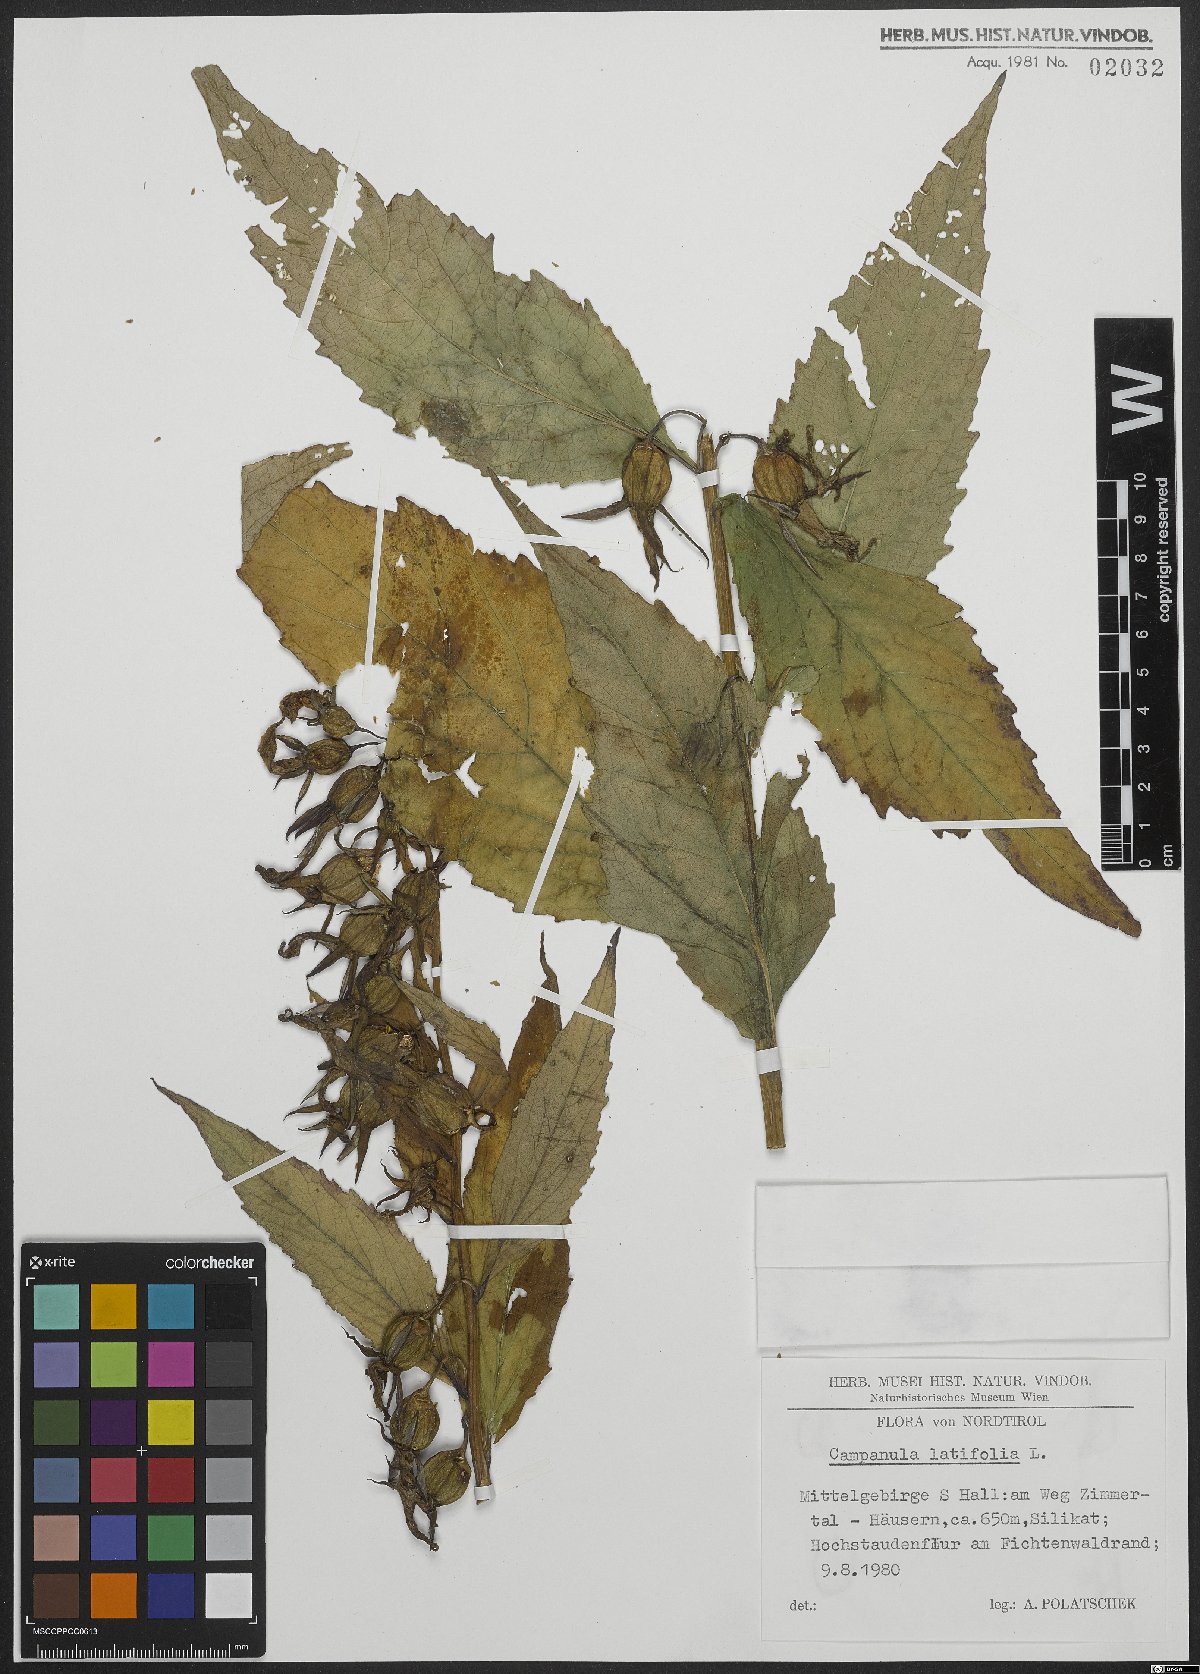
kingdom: Plantae
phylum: Tracheophyta
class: Magnoliopsida
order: Asterales
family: Campanulaceae
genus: Campanula
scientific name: Campanula latifolia
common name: Giant bellflower
